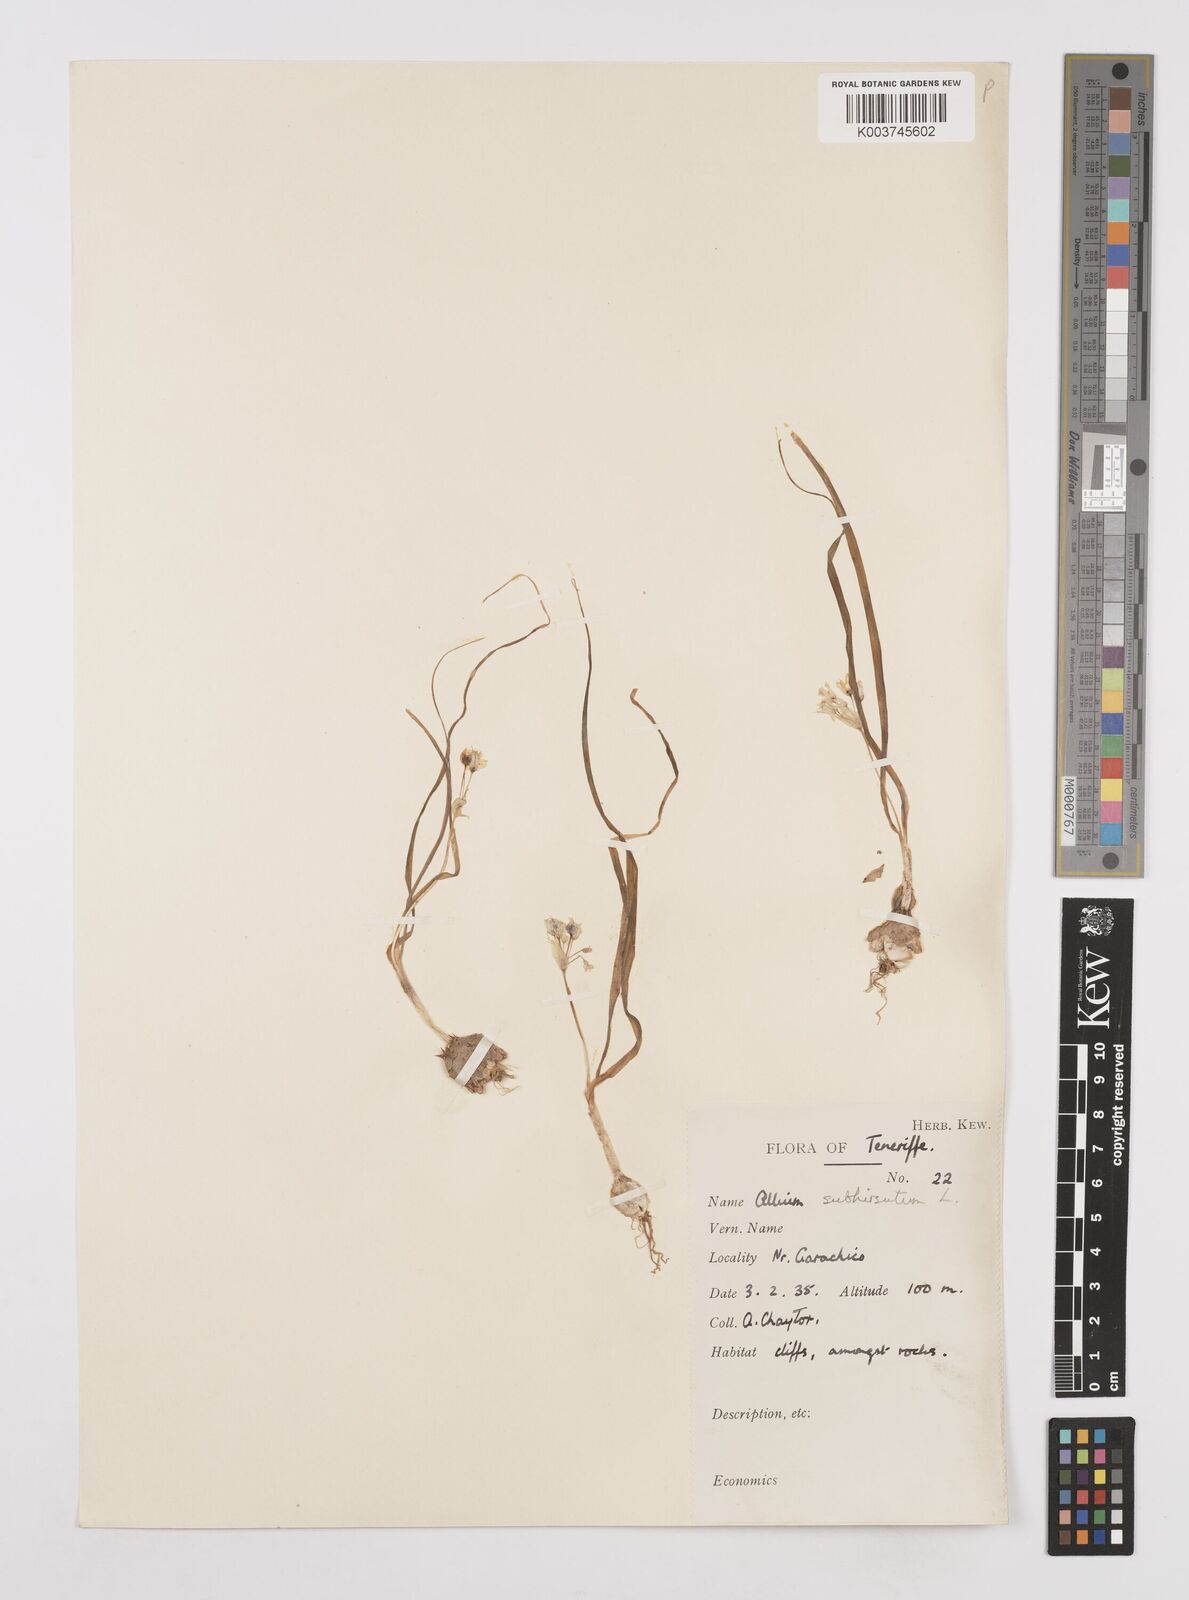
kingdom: Plantae
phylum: Tracheophyta
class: Liliopsida
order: Asparagales
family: Amaryllidaceae
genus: Allium
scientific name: Allium subvillosum
